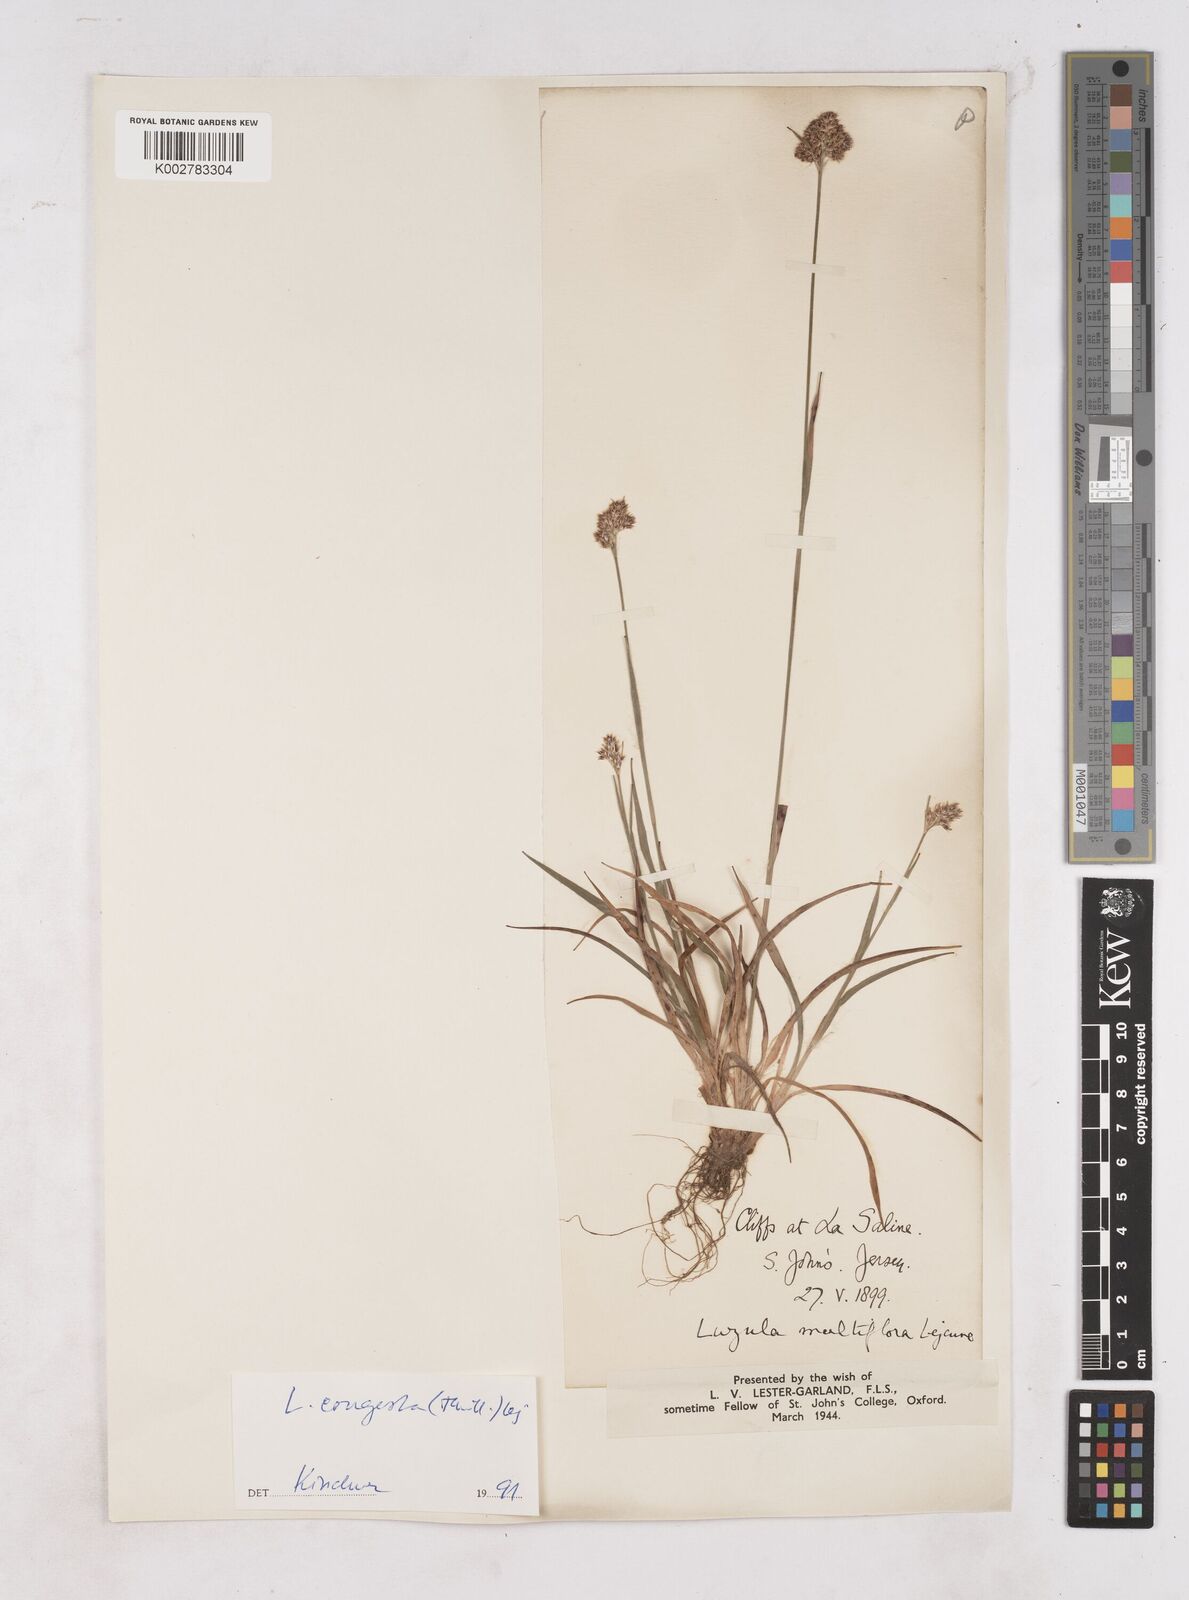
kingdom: Plantae
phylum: Tracheophyta
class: Liliopsida
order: Poales
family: Juncaceae
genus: Luzula
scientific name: Luzula multiflora
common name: Heath wood-rush
